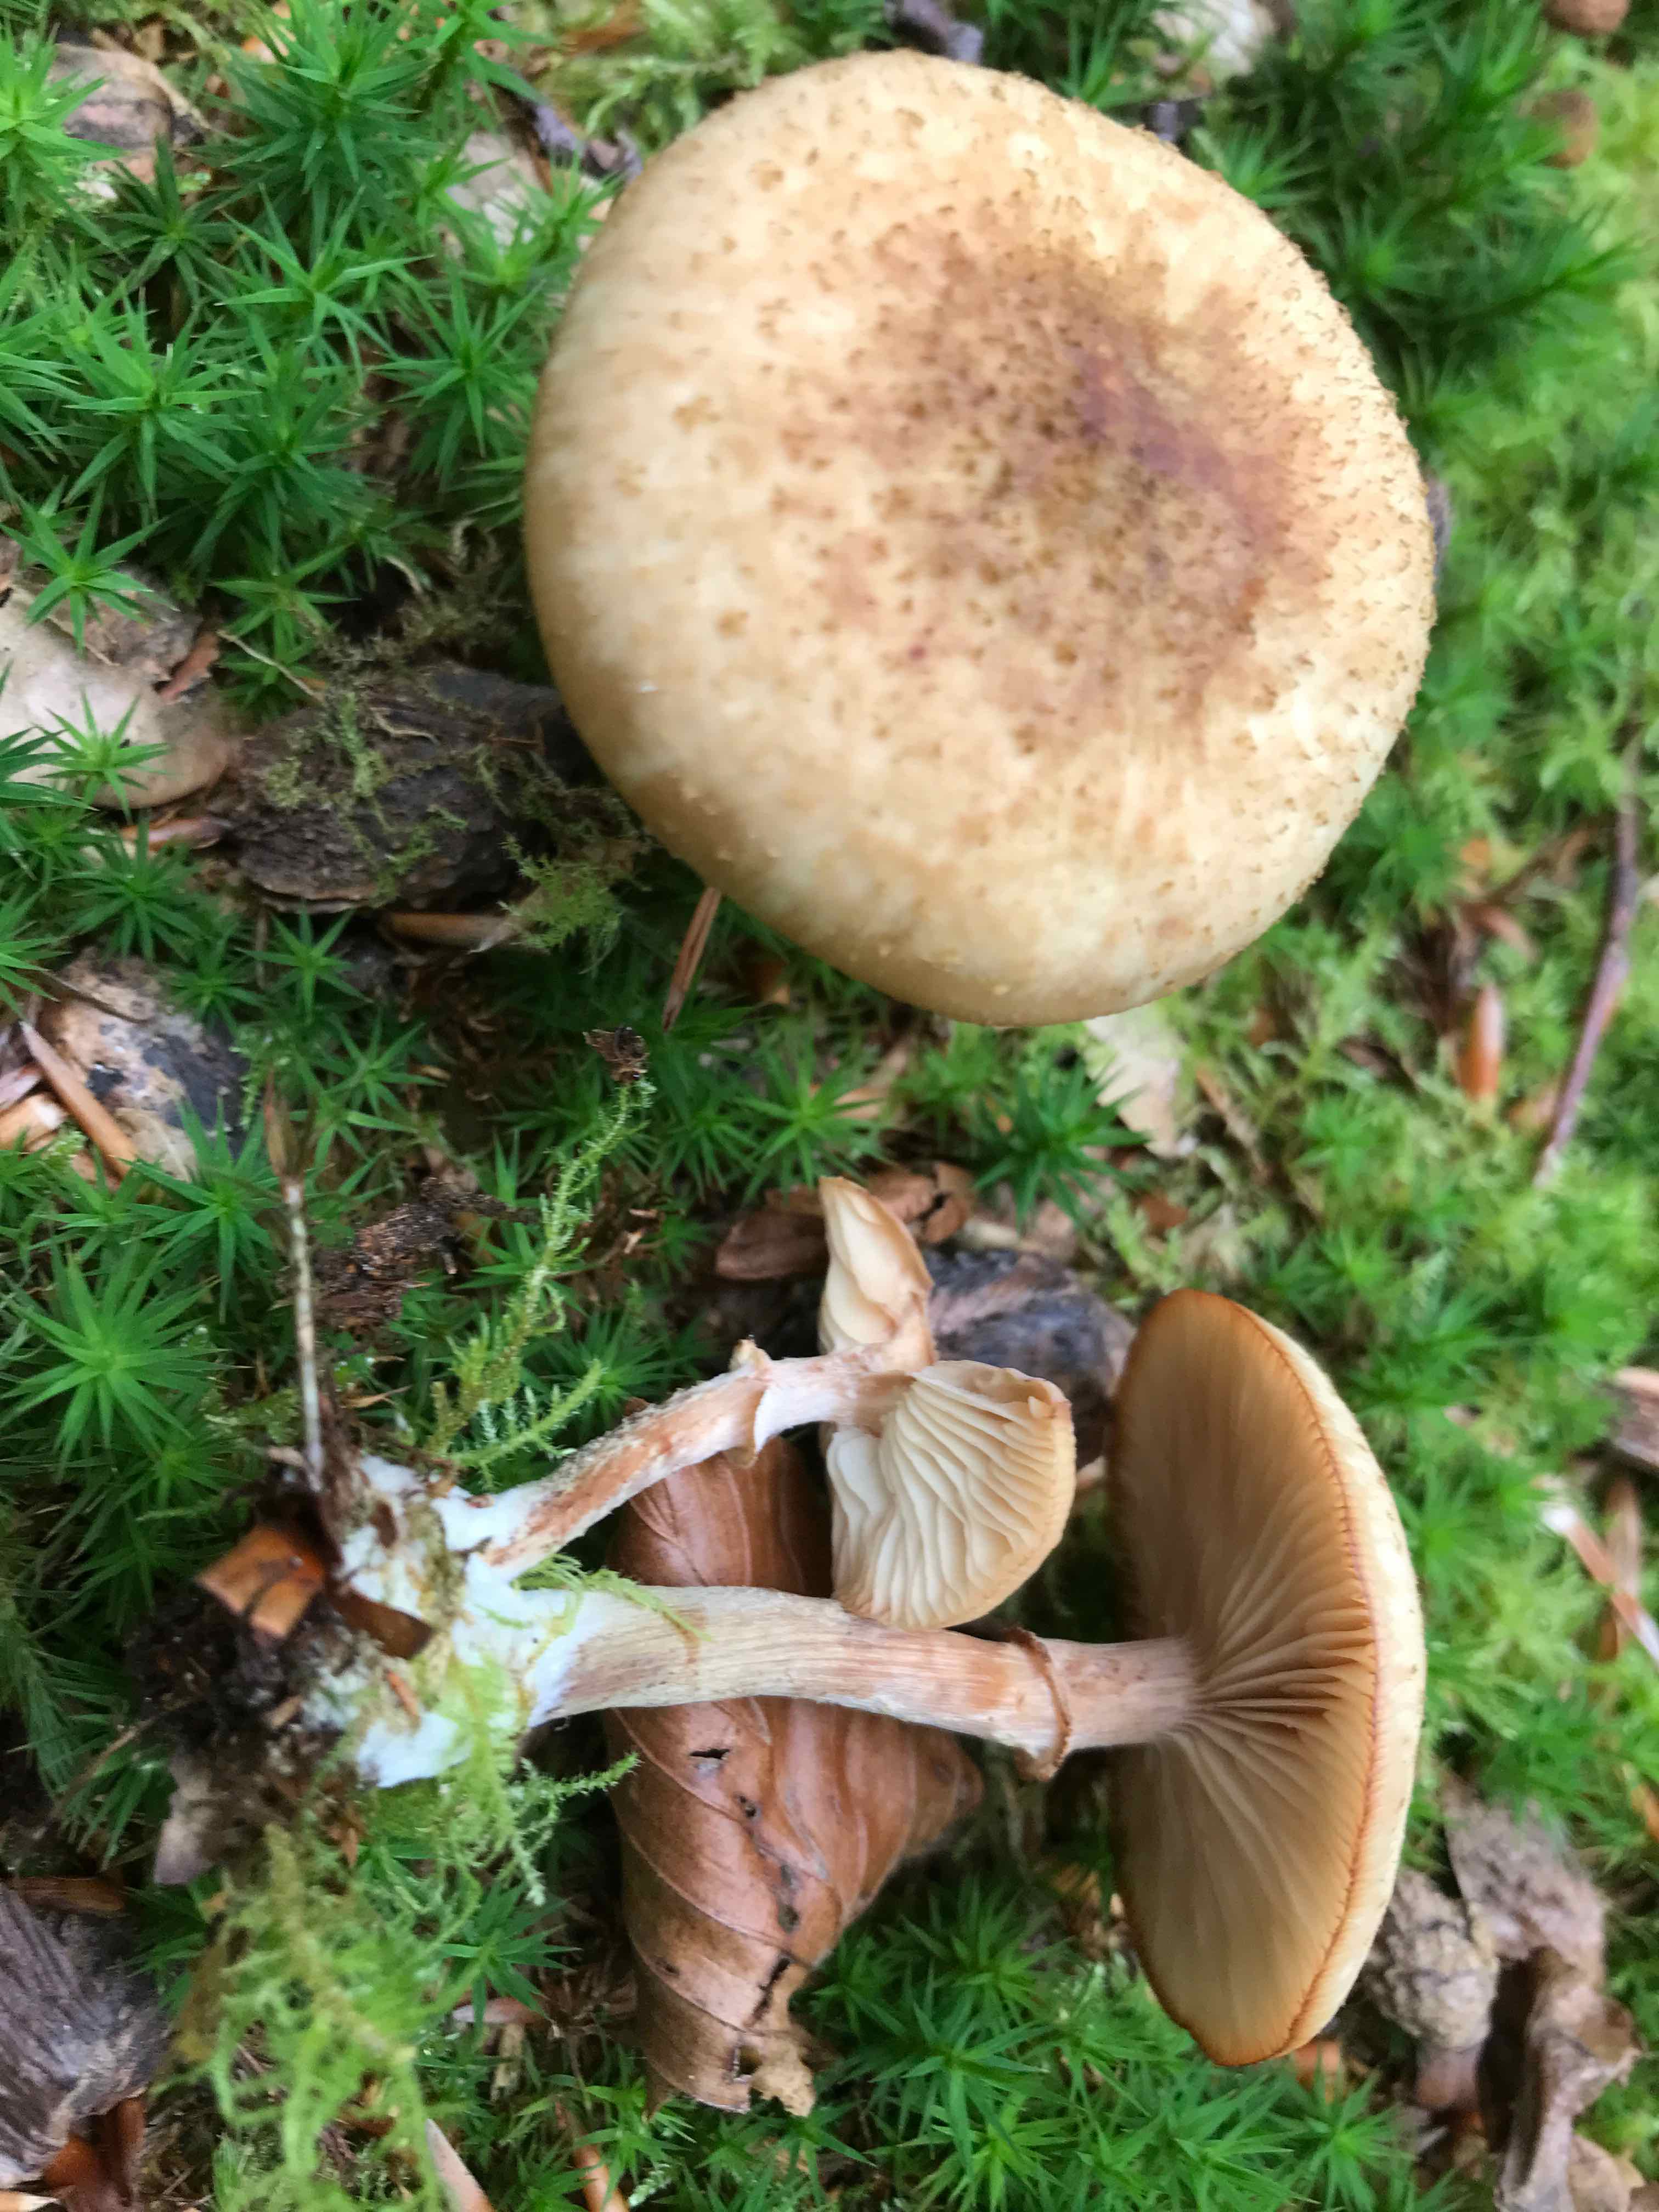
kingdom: Fungi
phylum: Basidiomycota
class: Agaricomycetes
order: Agaricales
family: Physalacriaceae
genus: Armillaria
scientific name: Armillaria lutea
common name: køllestokket honningsvamp
